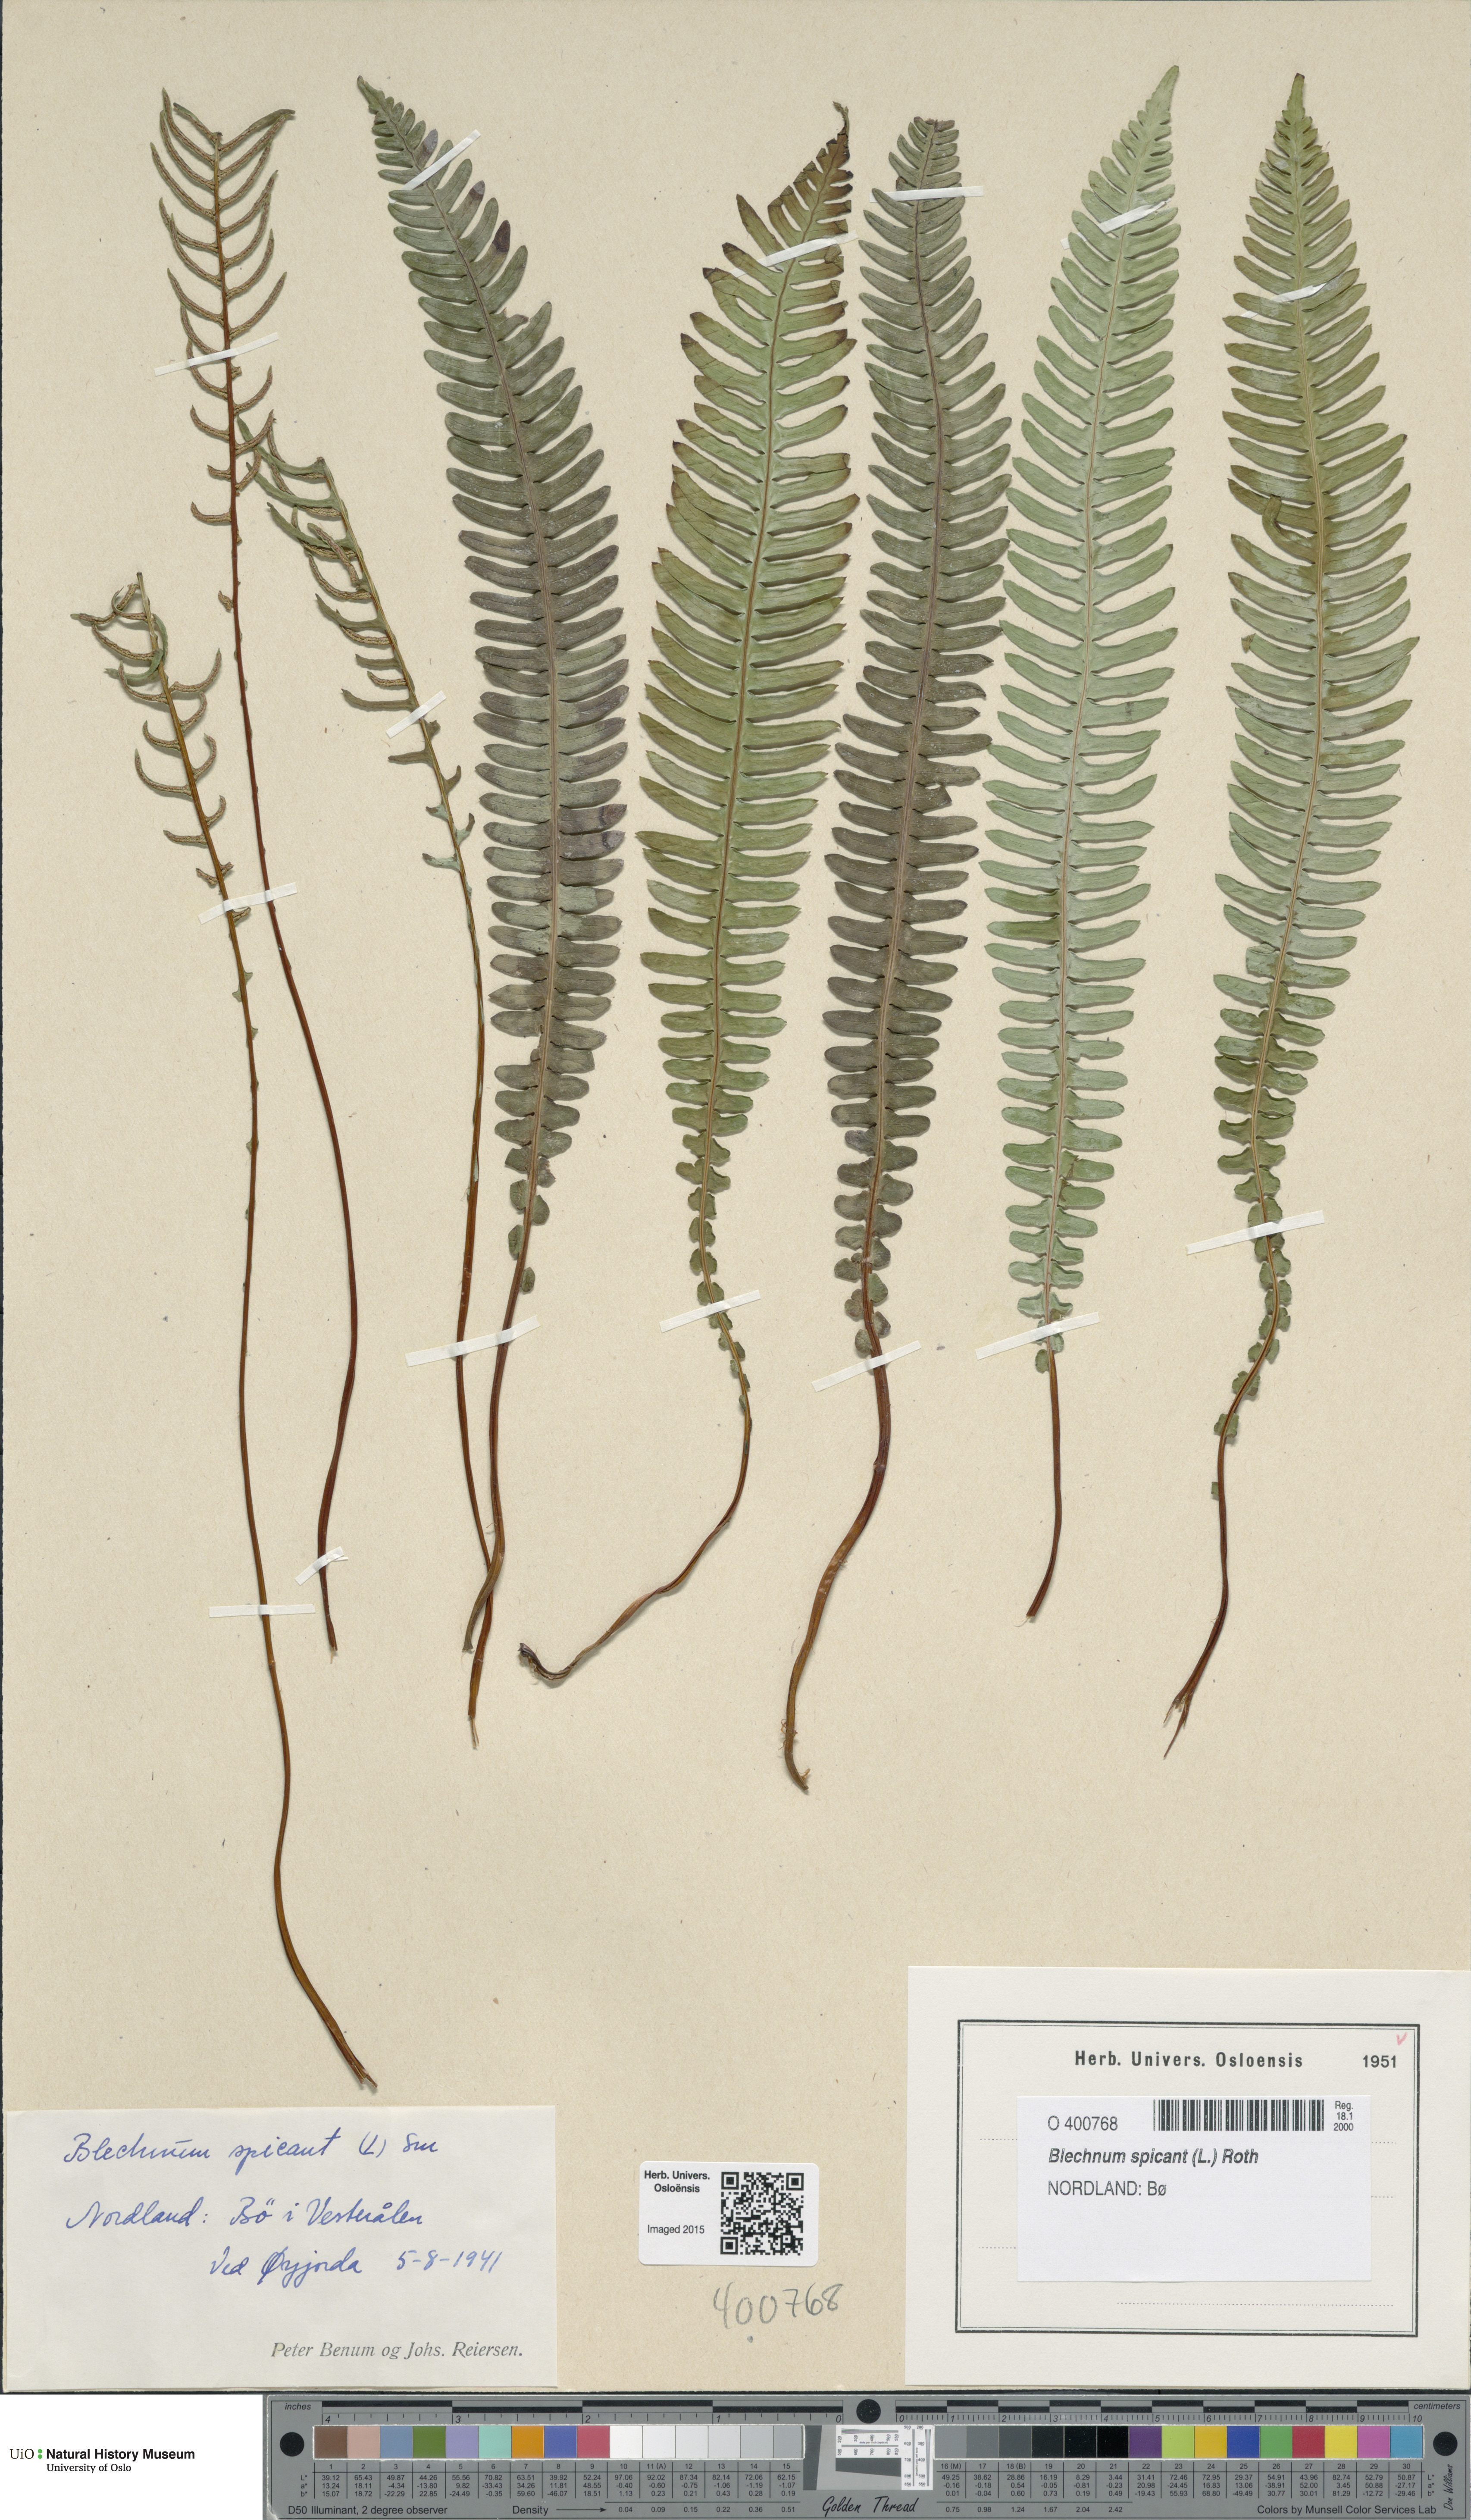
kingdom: Plantae
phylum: Tracheophyta
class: Polypodiopsida
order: Polypodiales
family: Blechnaceae
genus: Struthiopteris
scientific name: Struthiopteris spicant
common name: Deer fern
